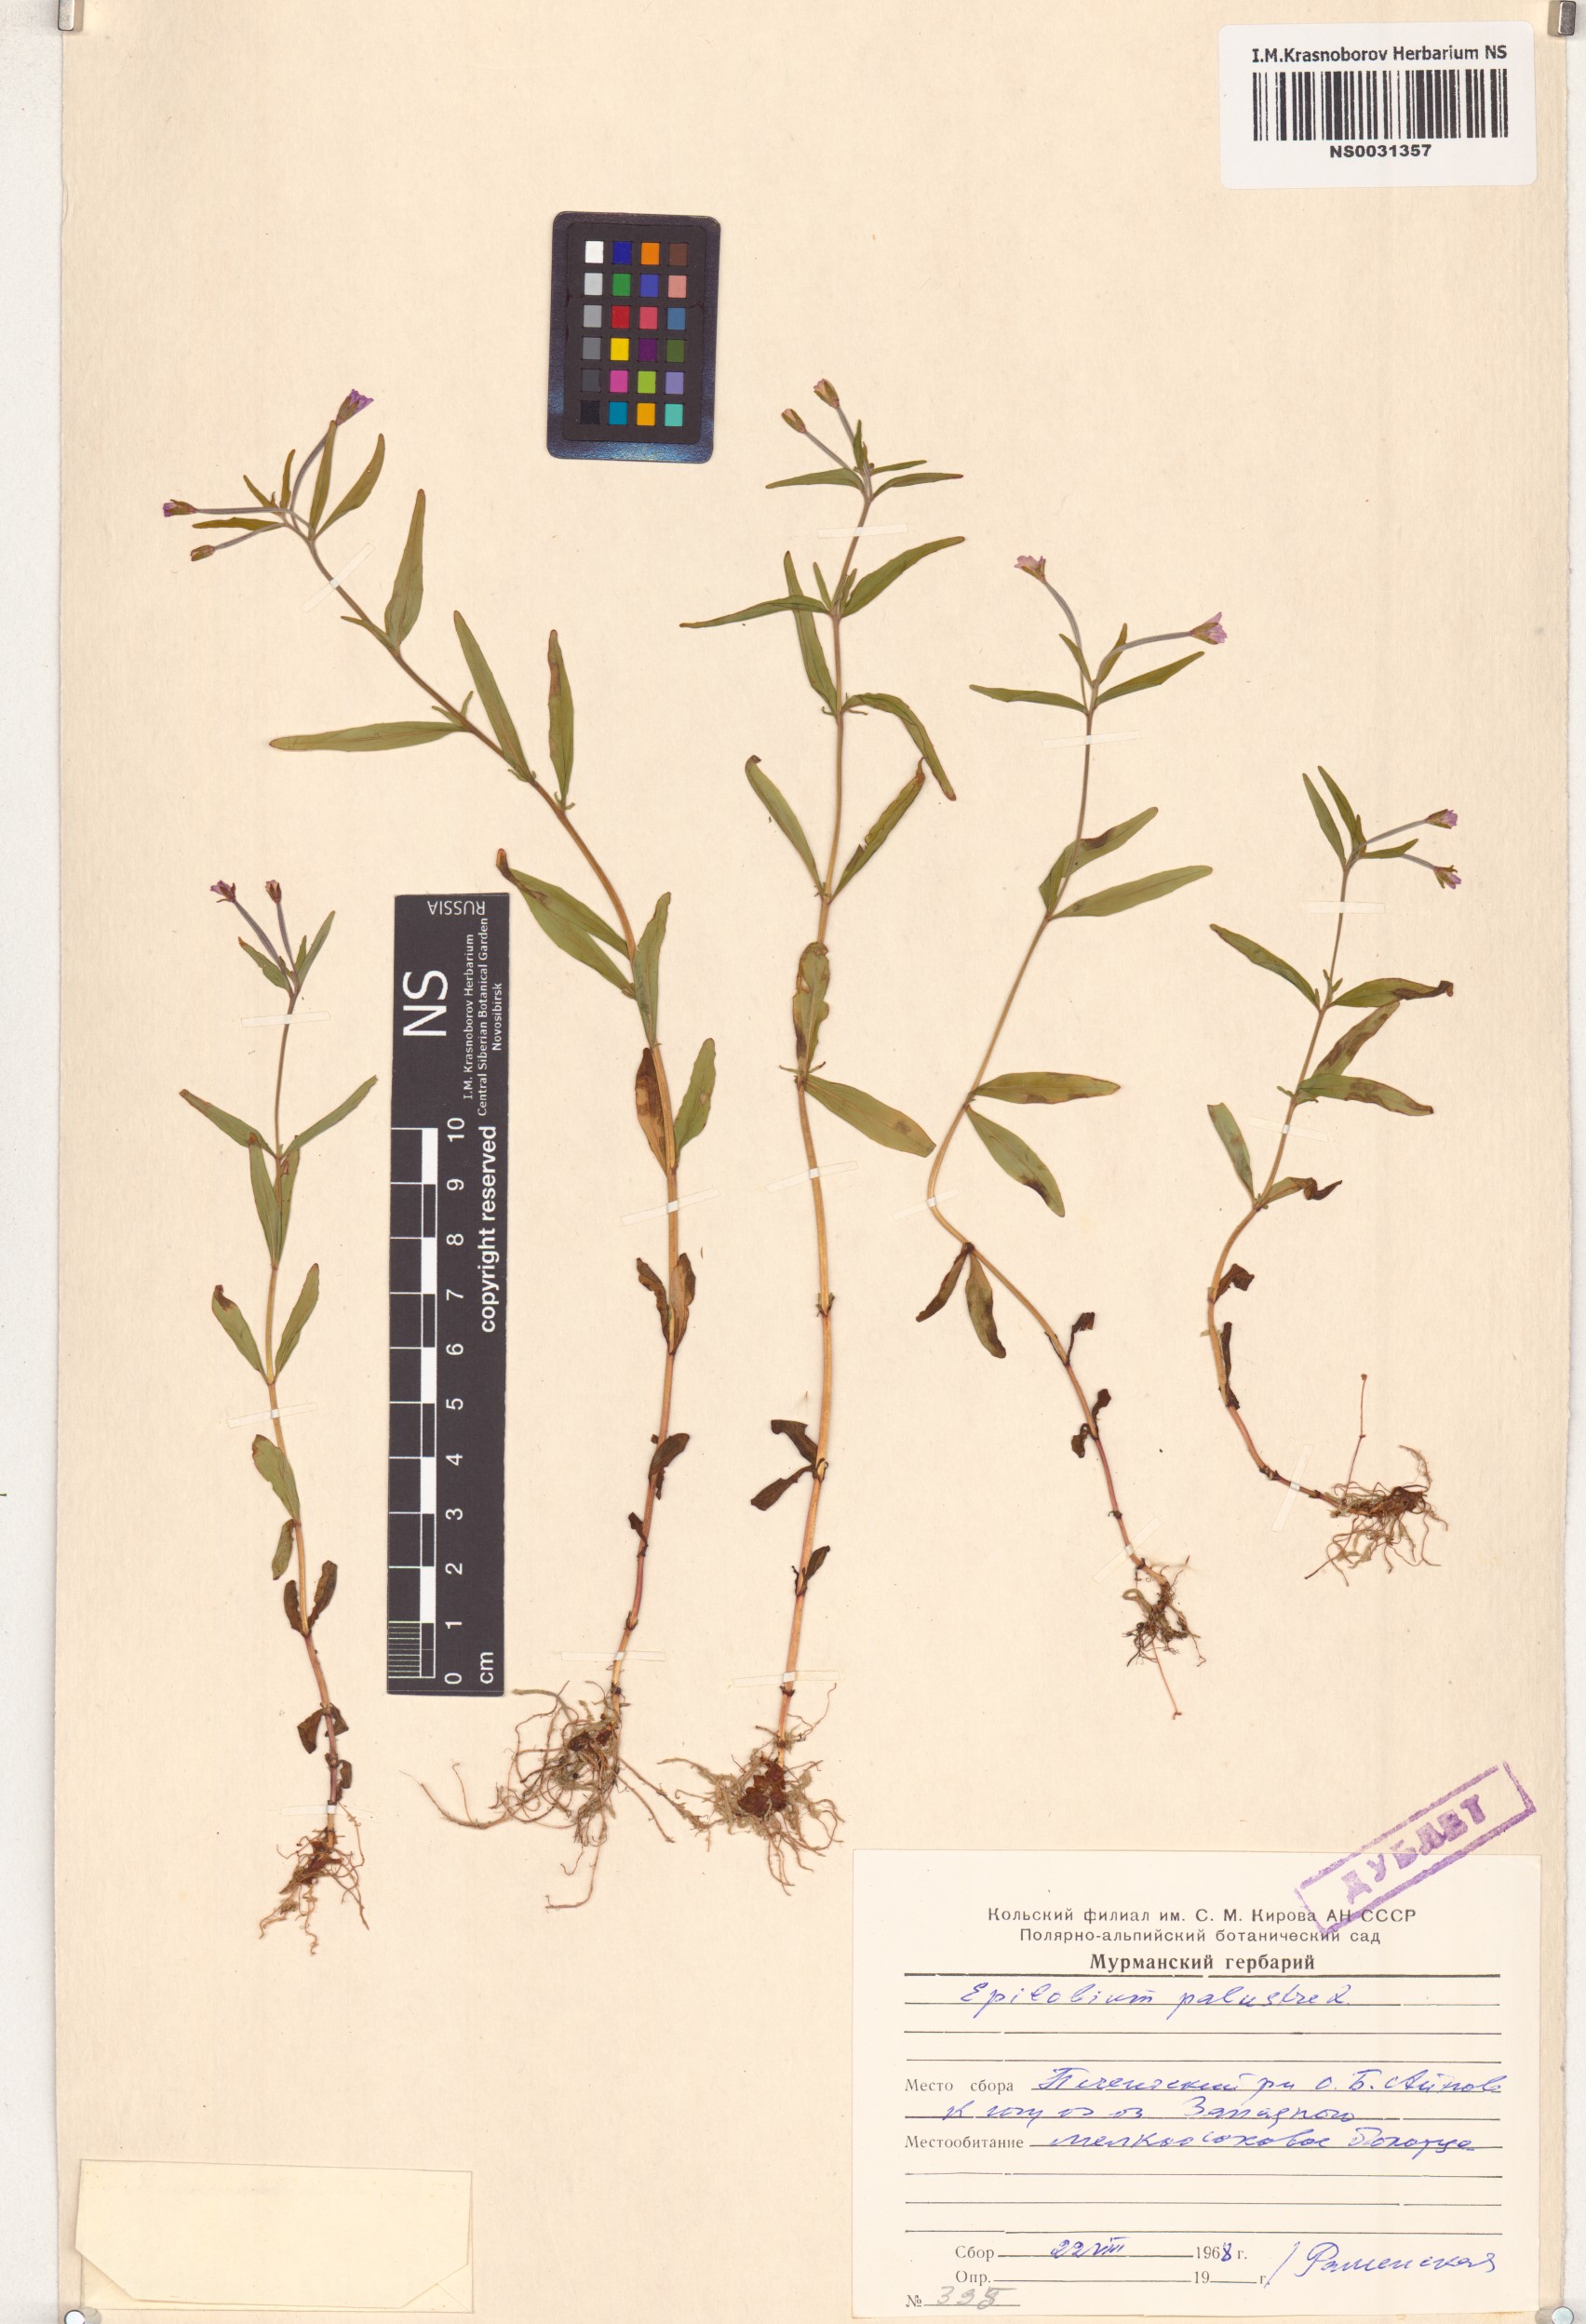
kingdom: Plantae
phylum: Tracheophyta
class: Magnoliopsida
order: Myrtales
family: Onagraceae
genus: Epilobium
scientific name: Epilobium palustre
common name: Marsh willowherb
